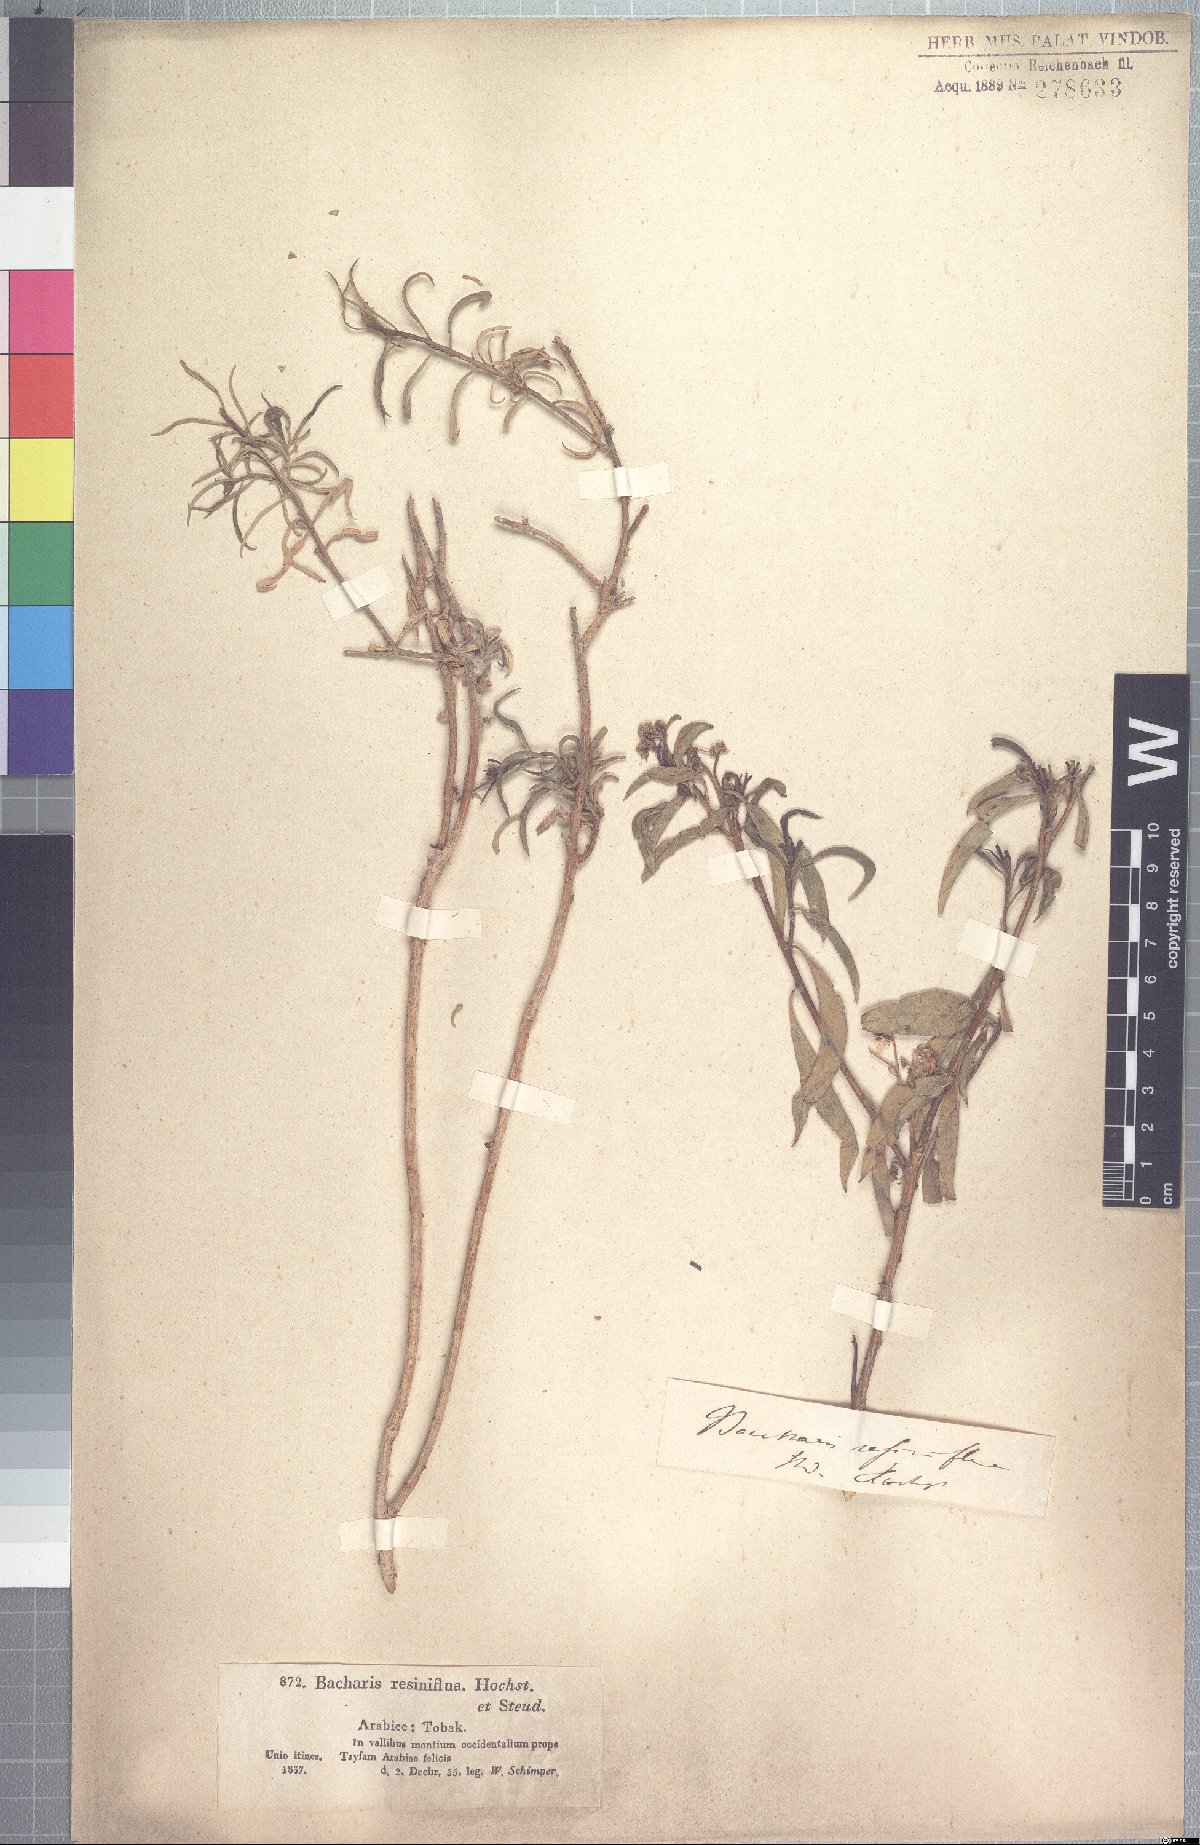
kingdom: Plantae
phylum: Tracheophyta
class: Magnoliopsida
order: Asterales
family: Asteraceae
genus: Psiadia
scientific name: Psiadia punctulata
